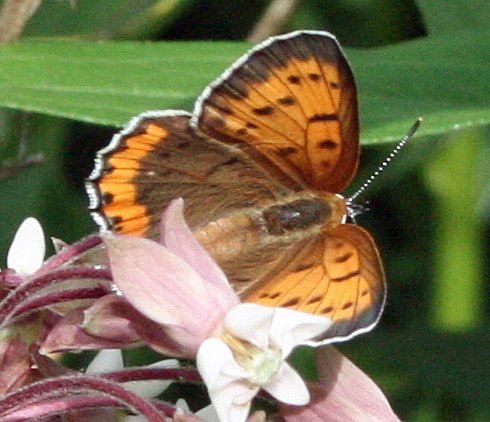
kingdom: Animalia
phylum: Arthropoda
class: Insecta
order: Lepidoptera
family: Sesiidae
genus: Sesia
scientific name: Sesia Lycaena hyllus
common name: Bronze Copper
